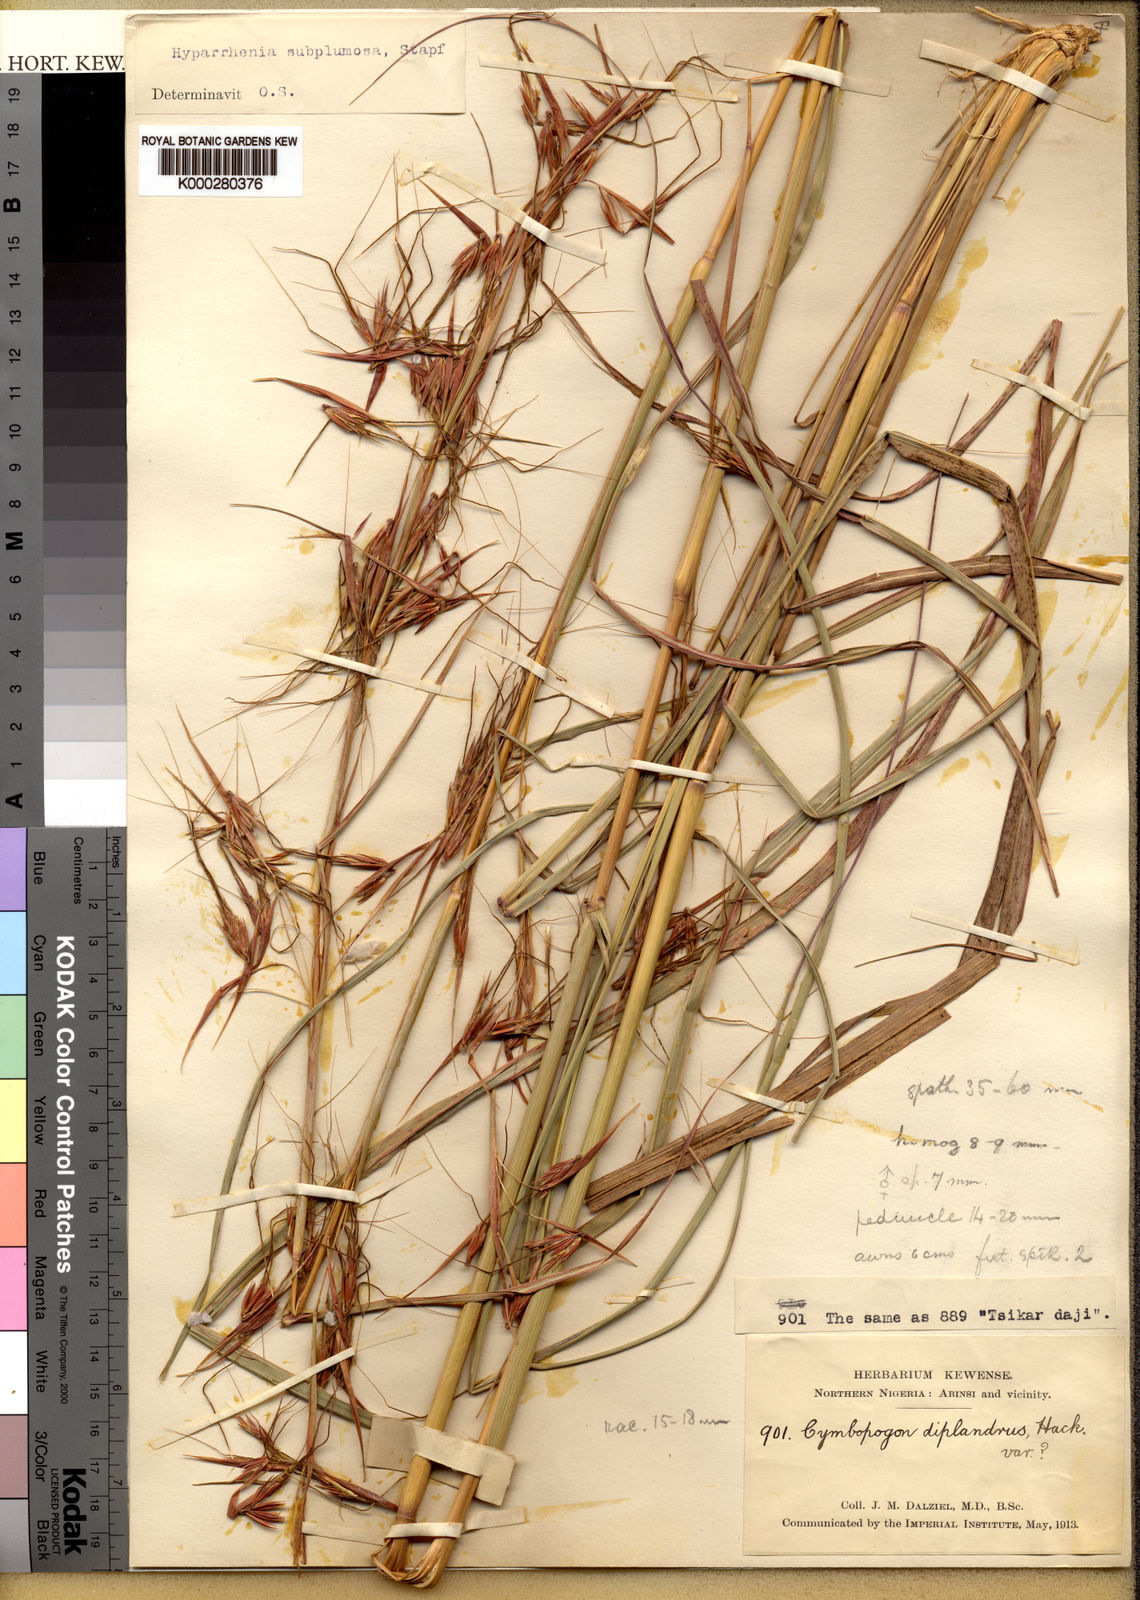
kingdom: Plantae
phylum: Tracheophyta
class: Liliopsida
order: Poales
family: Poaceae
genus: Hyparrhenia
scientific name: Hyparrhenia subplumosa
